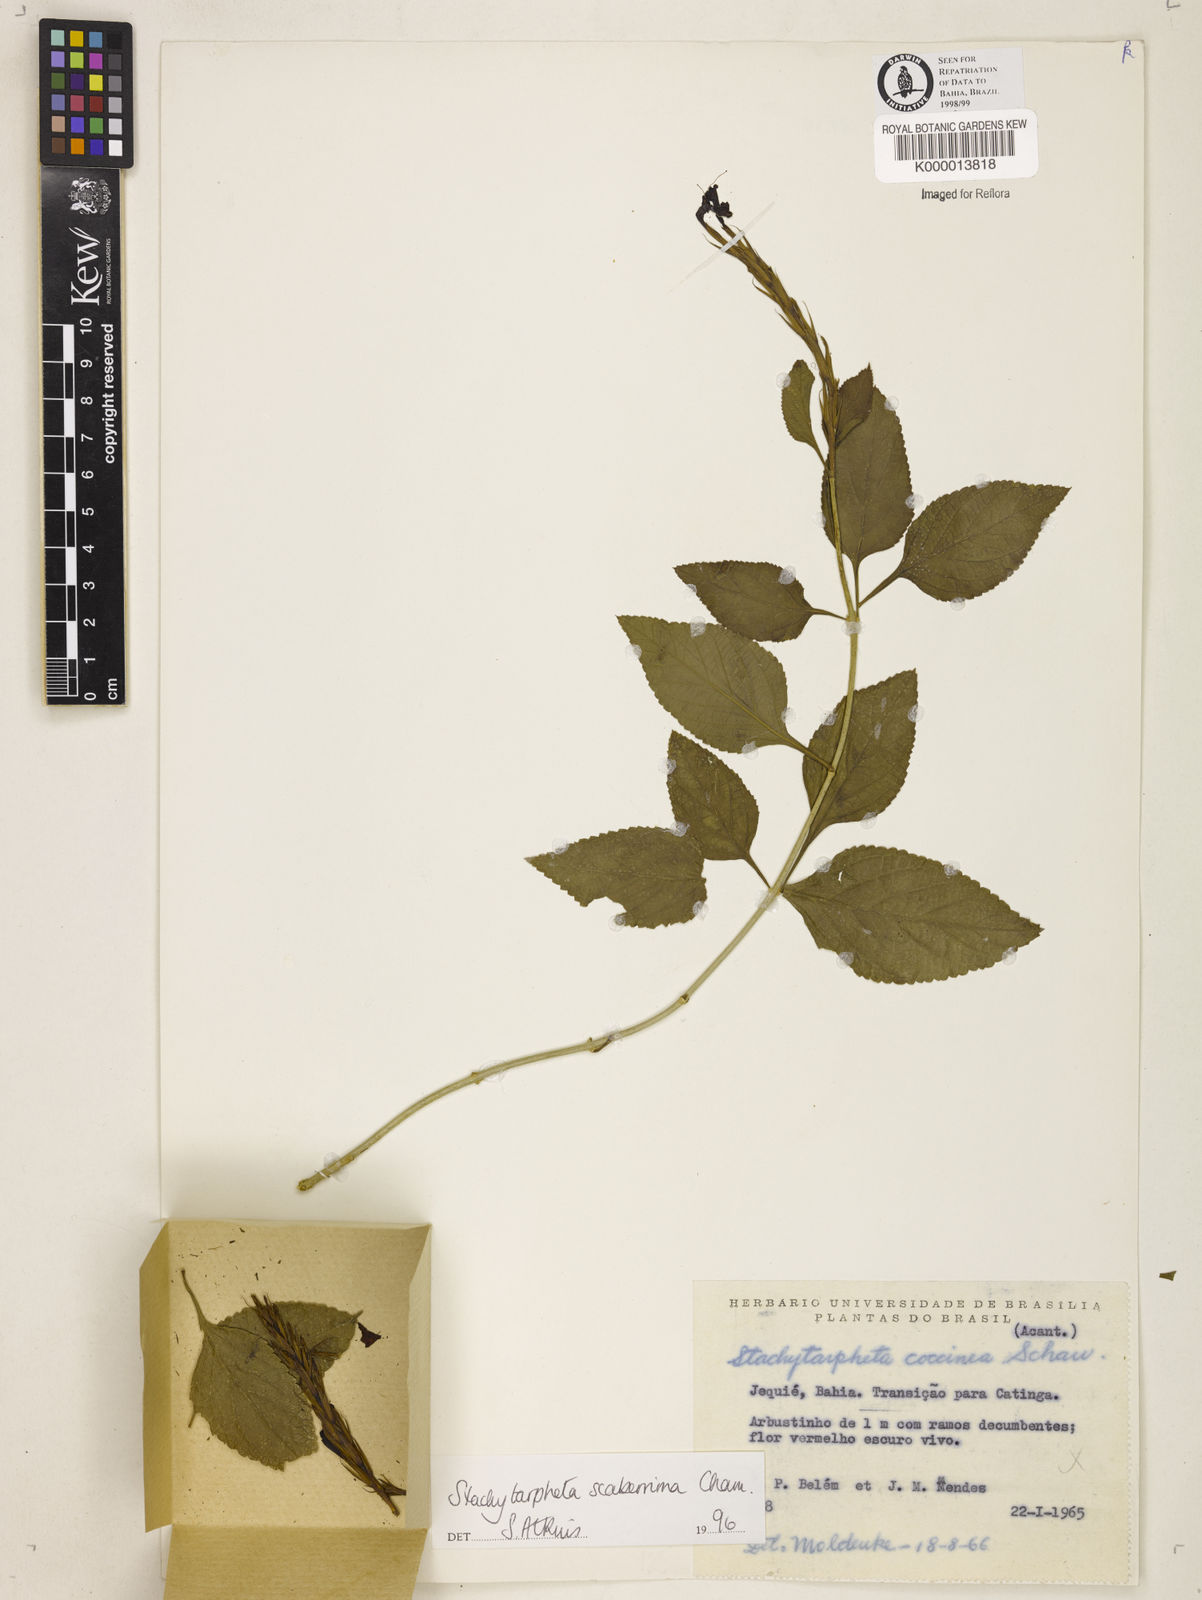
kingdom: Plantae
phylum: Tracheophyta
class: Magnoliopsida
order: Lamiales
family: Verbenaceae
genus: Stachytarpheta
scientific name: Stachytarpheta scaberrima
